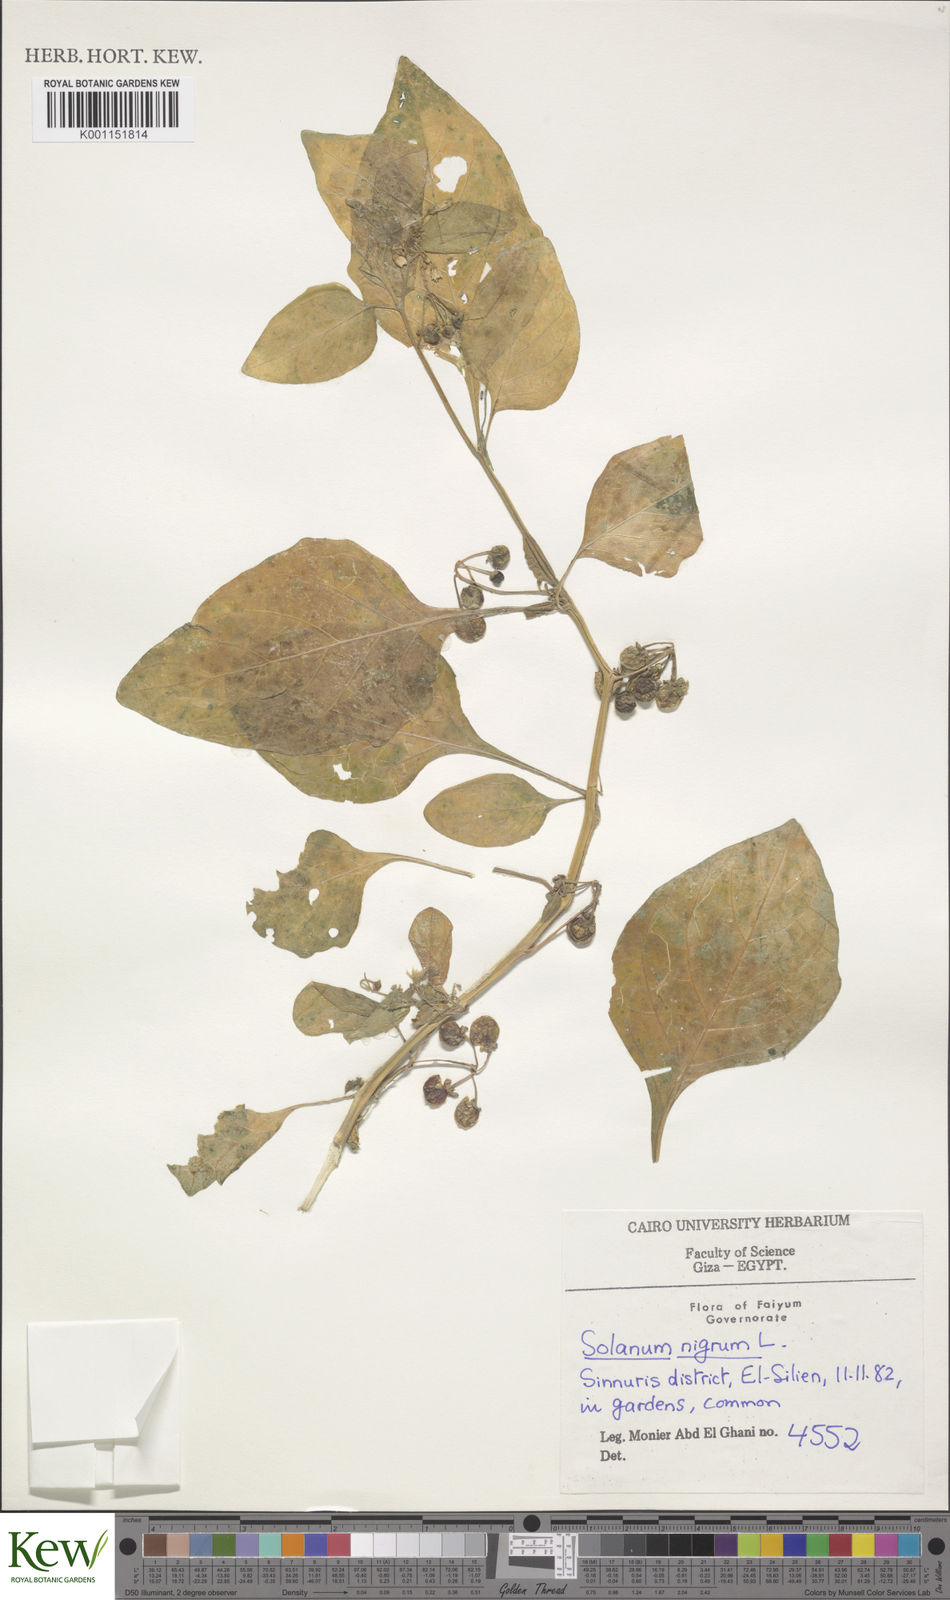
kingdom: Plantae
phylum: Tracheophyta
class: Magnoliopsida
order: Solanales
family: Solanaceae
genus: Solanum
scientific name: Solanum
